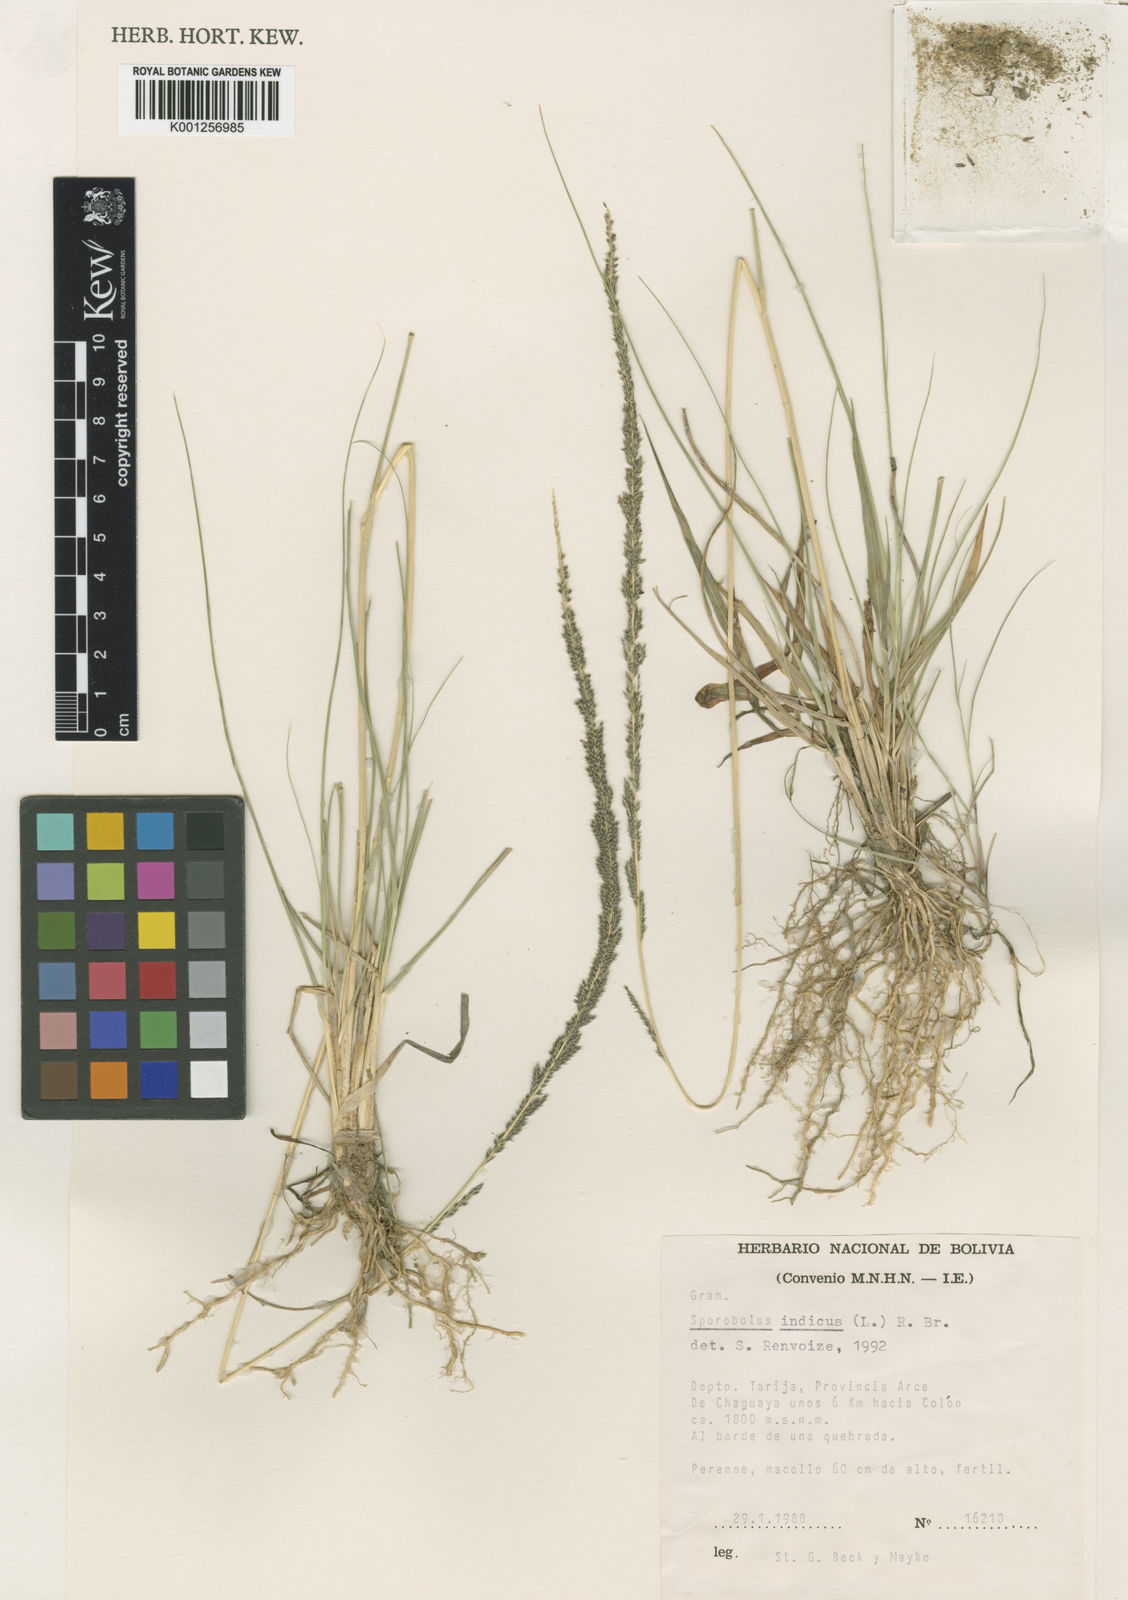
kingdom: Plantae
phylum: Tracheophyta
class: Liliopsida
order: Poales
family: Poaceae
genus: Sporobolus
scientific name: Sporobolus indicus
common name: Smut grass
